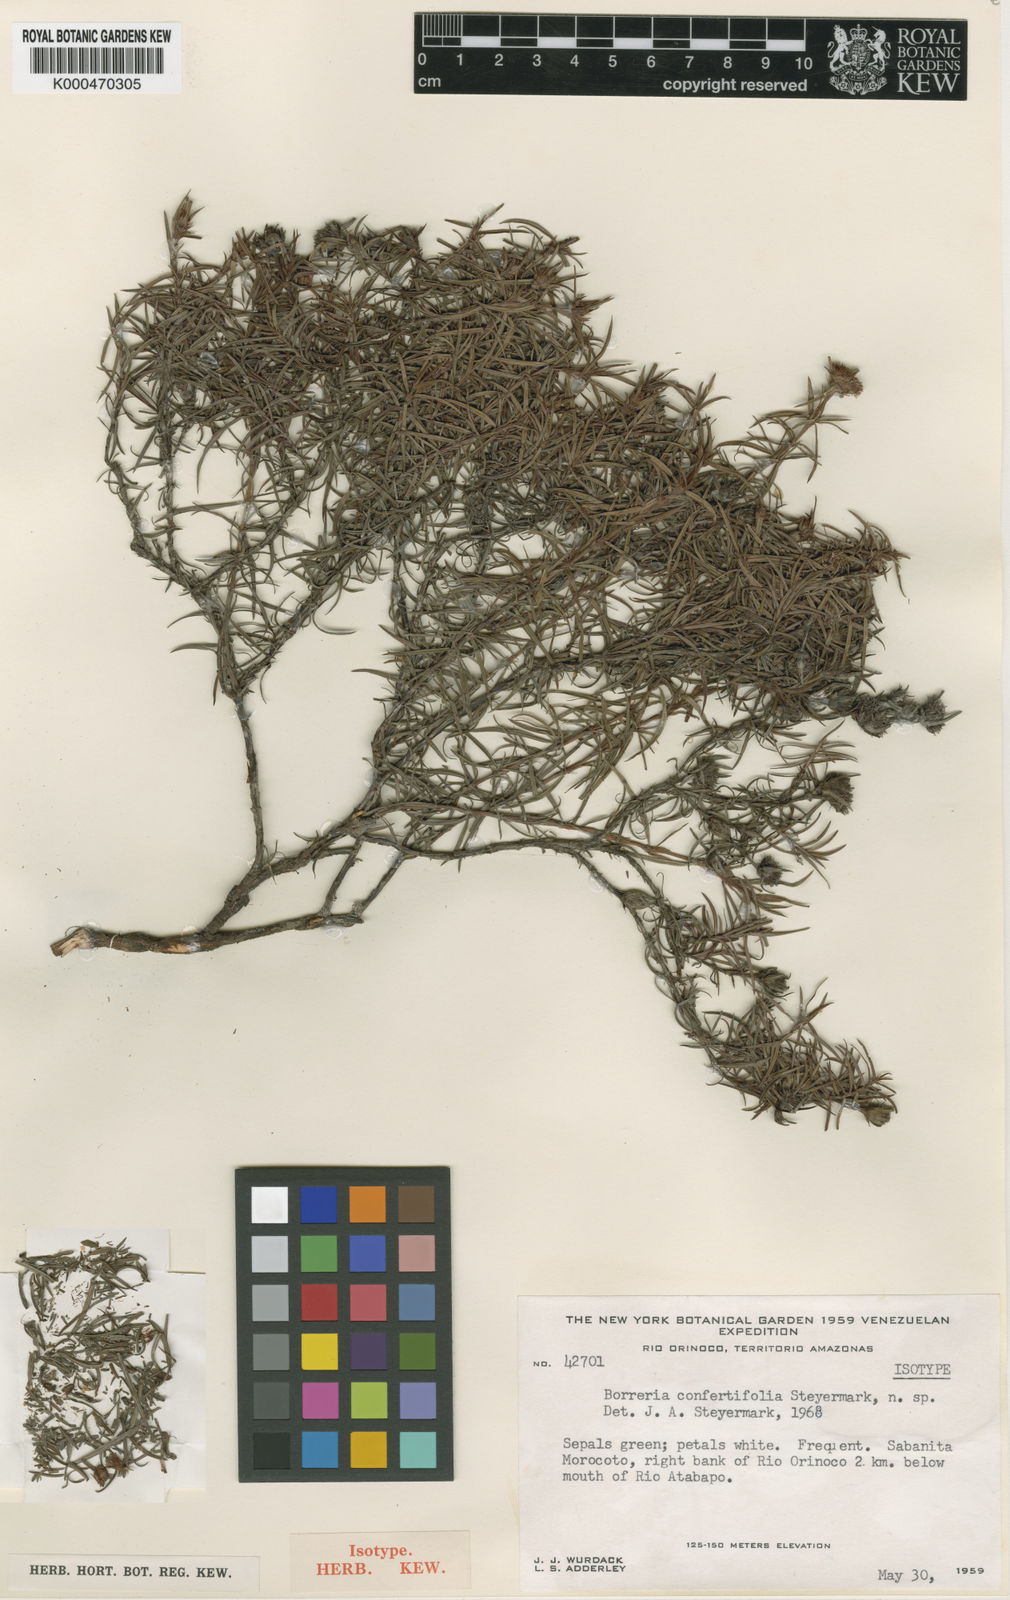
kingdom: Plantae
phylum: Tracheophyta
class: Magnoliopsida
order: Gentianales
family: Rubiaceae
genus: Spermacoce
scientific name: Spermacoce confertifolia
